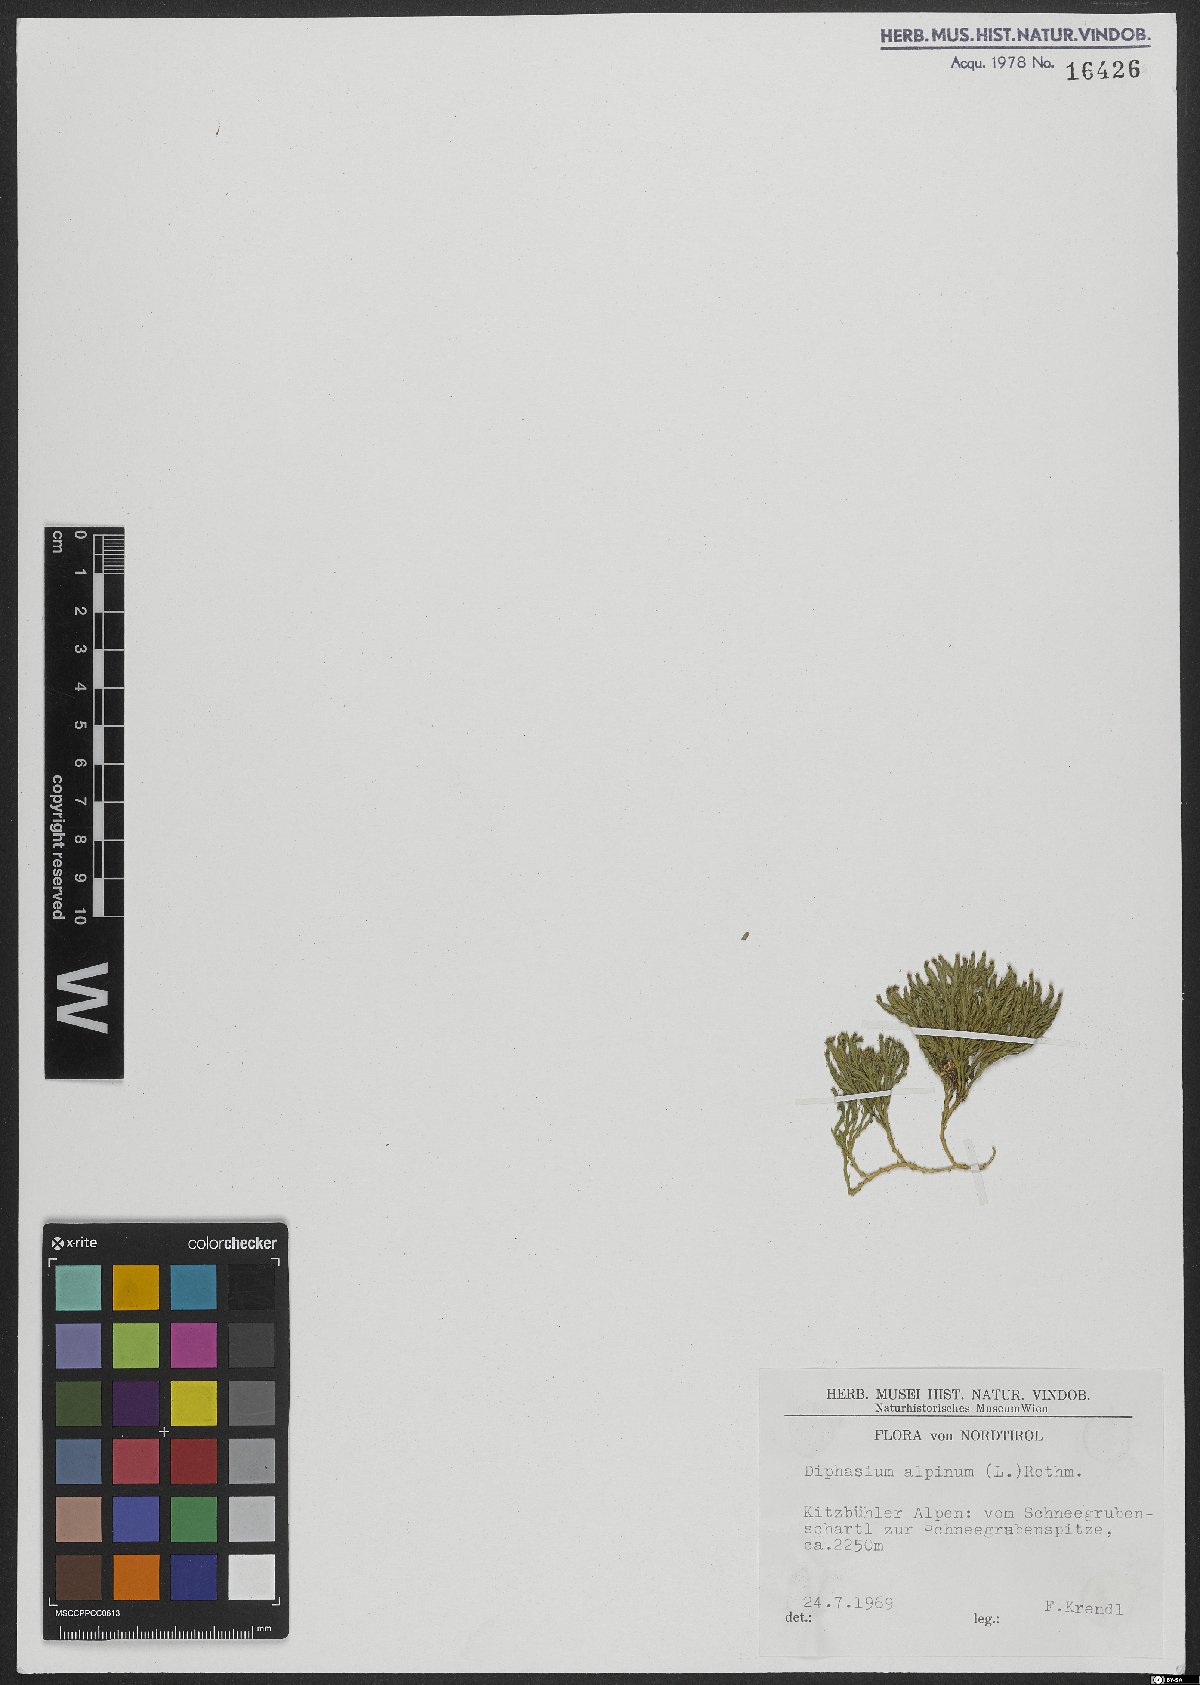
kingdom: Plantae
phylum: Tracheophyta
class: Lycopodiopsida
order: Lycopodiales
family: Lycopodiaceae
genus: Diphasiastrum
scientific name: Diphasiastrum alpinum
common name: Alpine clubmoss
